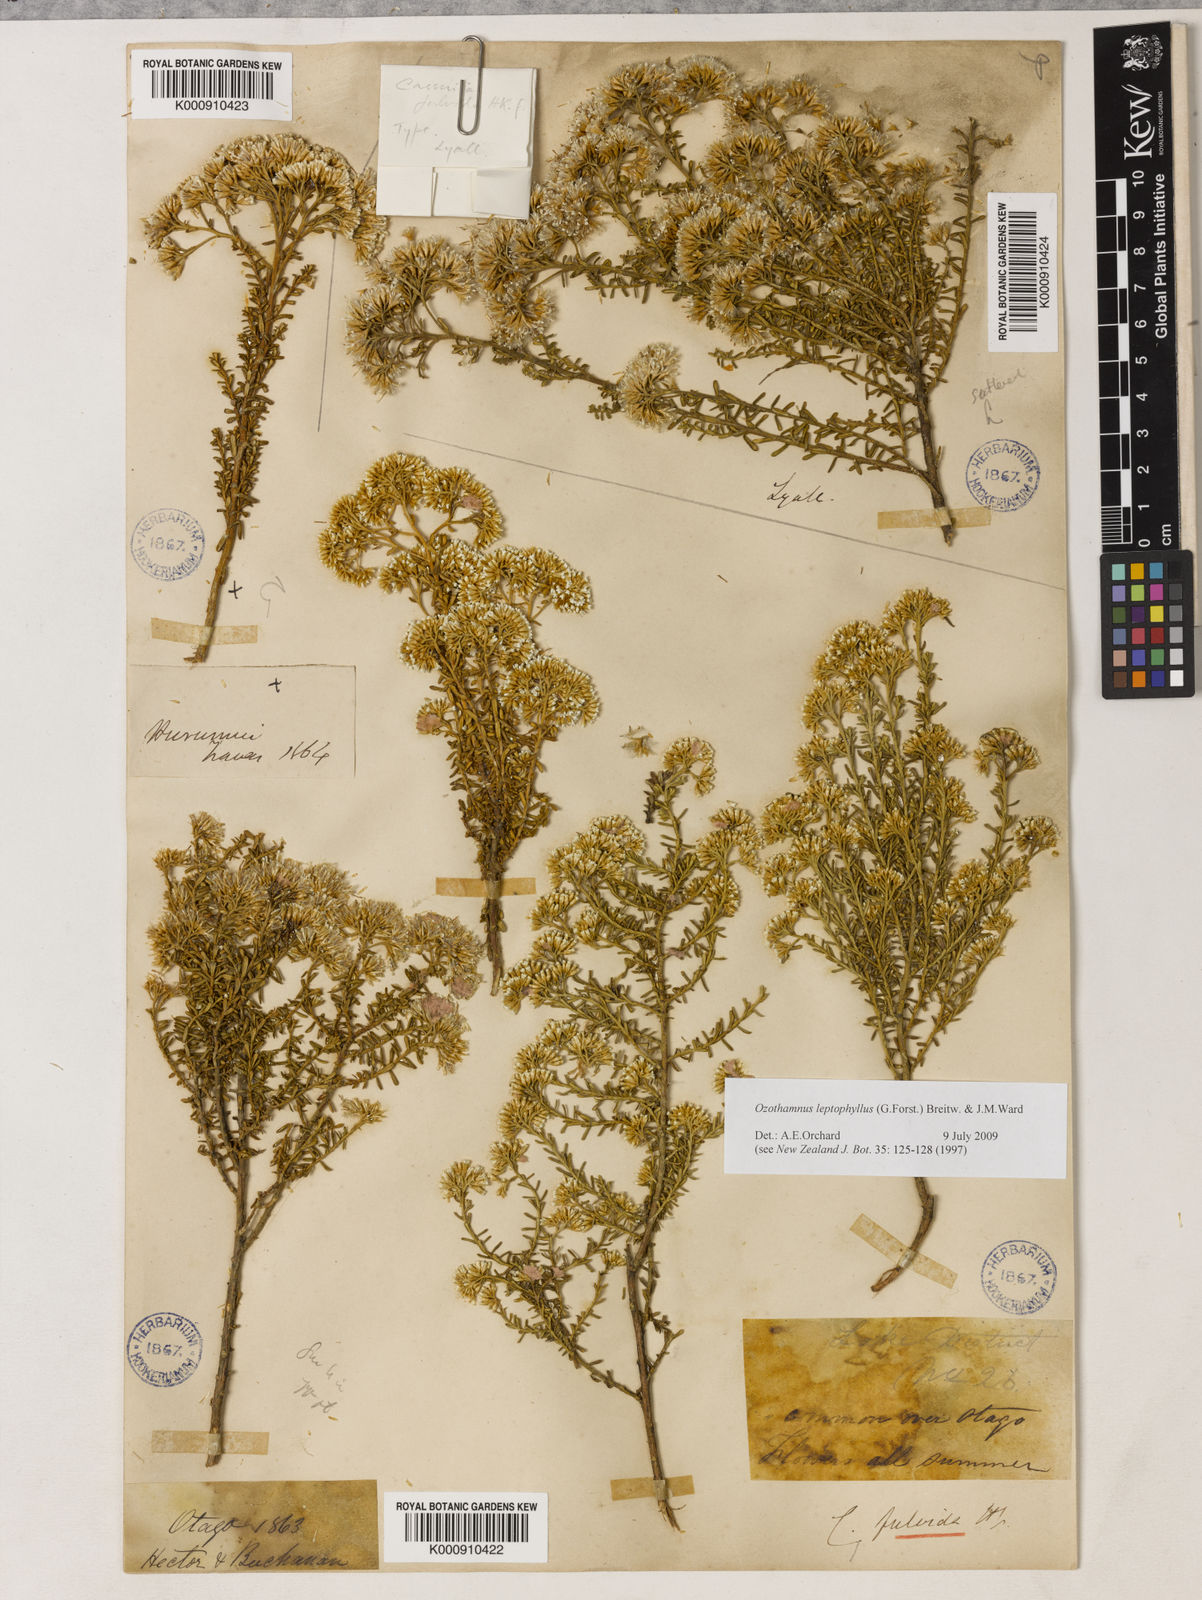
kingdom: Plantae
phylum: Tracheophyta
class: Magnoliopsida
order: Asterales
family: Asteraceae
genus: Ozothamnus
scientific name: Ozothamnus leptophyllus
